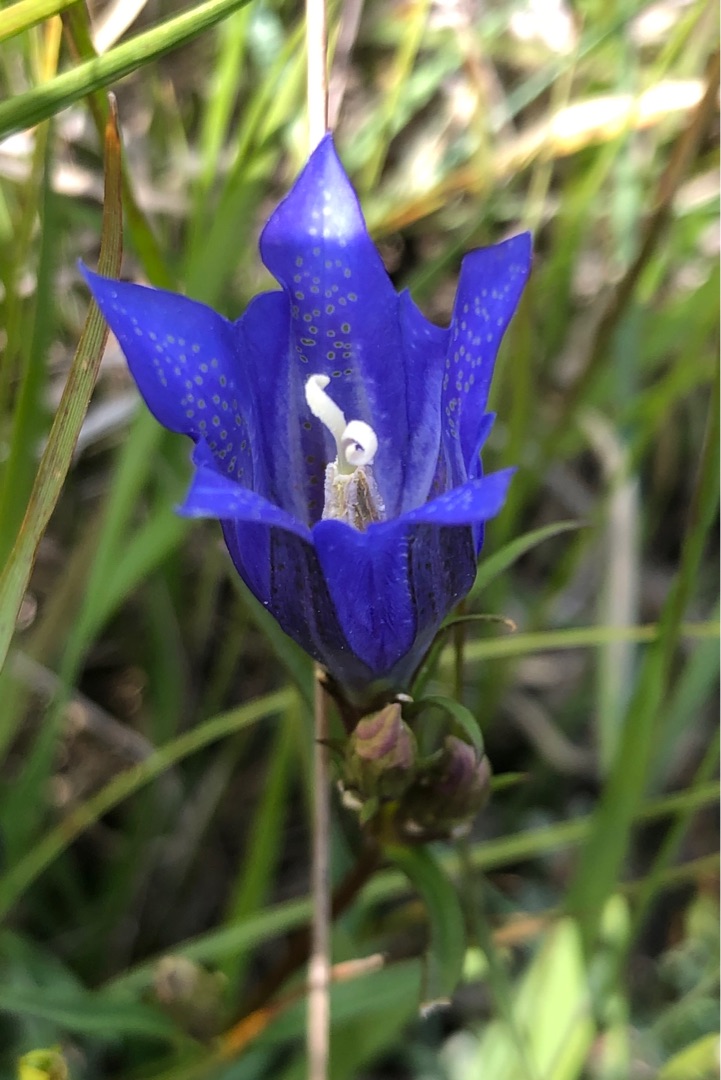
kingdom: Plantae
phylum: Tracheophyta
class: Magnoliopsida
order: Gentianales
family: Gentianaceae
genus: Gentiana
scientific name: Gentiana pneumonanthe
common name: Klokke-ensian
